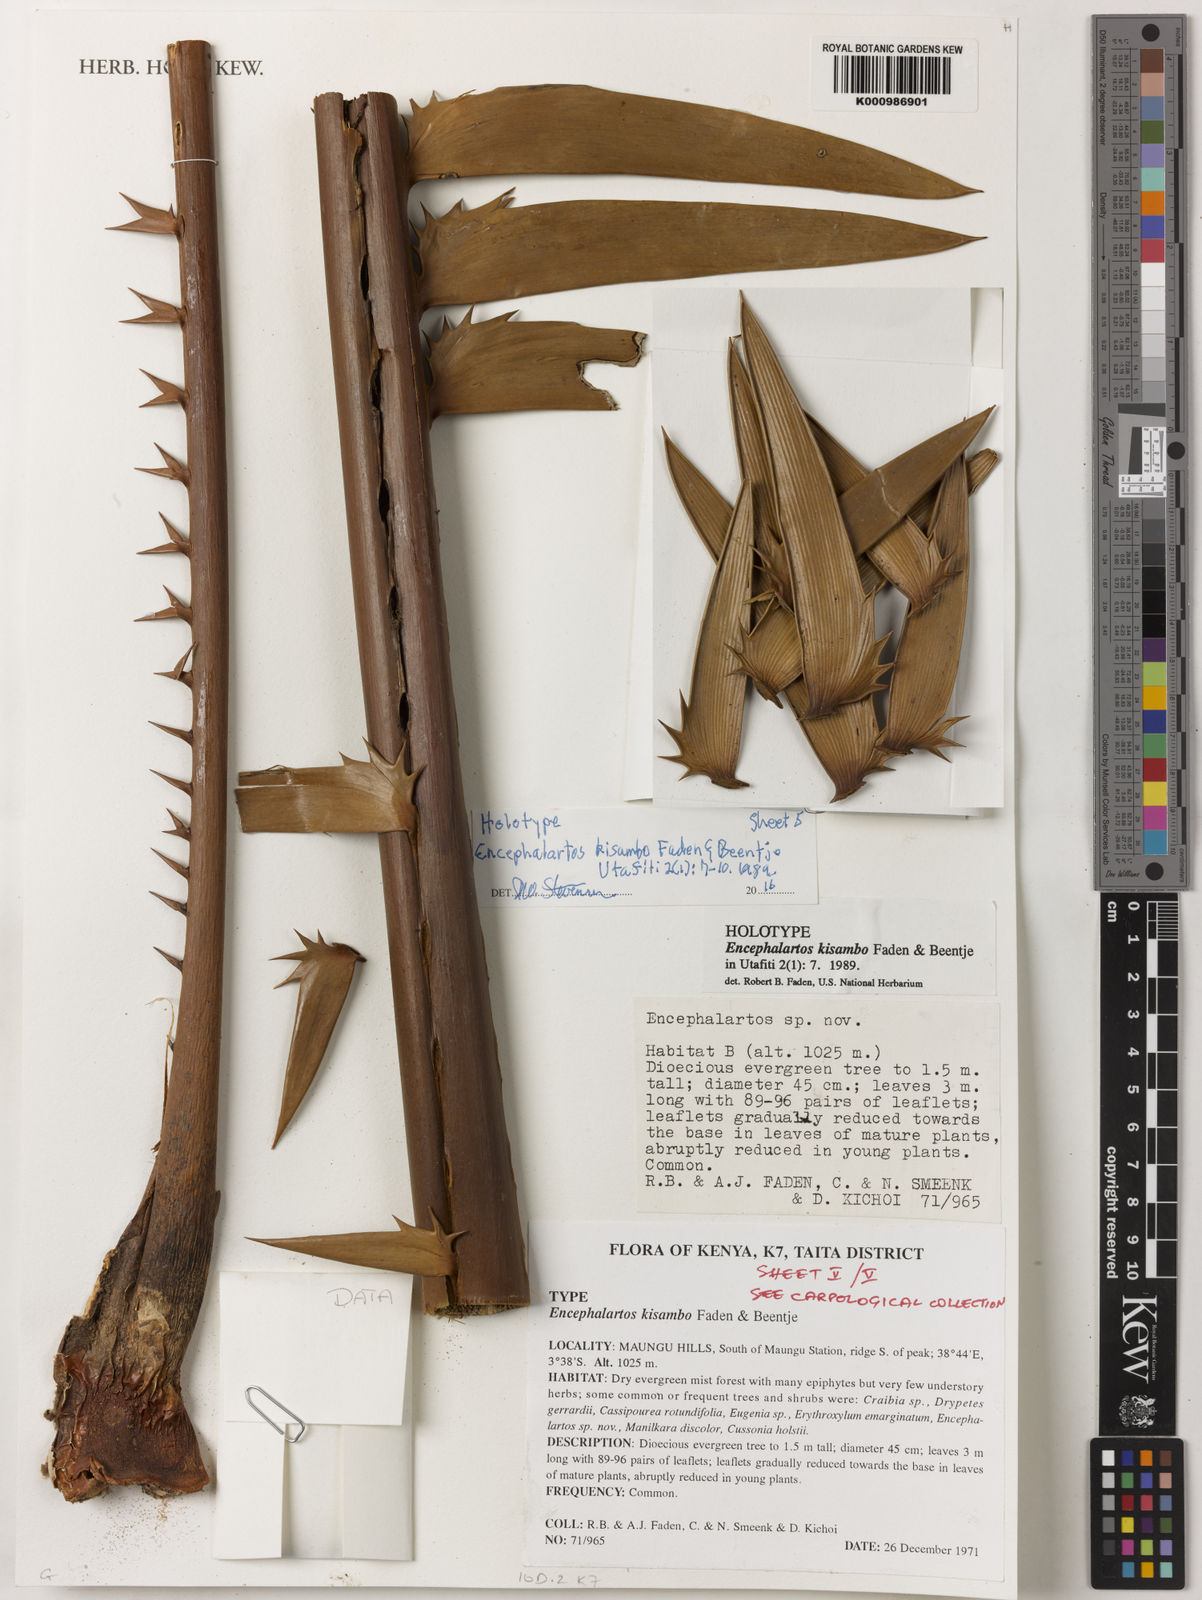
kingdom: Plantae
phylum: Tracheophyta
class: Cycadopsida
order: Cycadales
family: Zamiaceae
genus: Encephalartos
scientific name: Encephalartos kisambo
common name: Voi cycad
